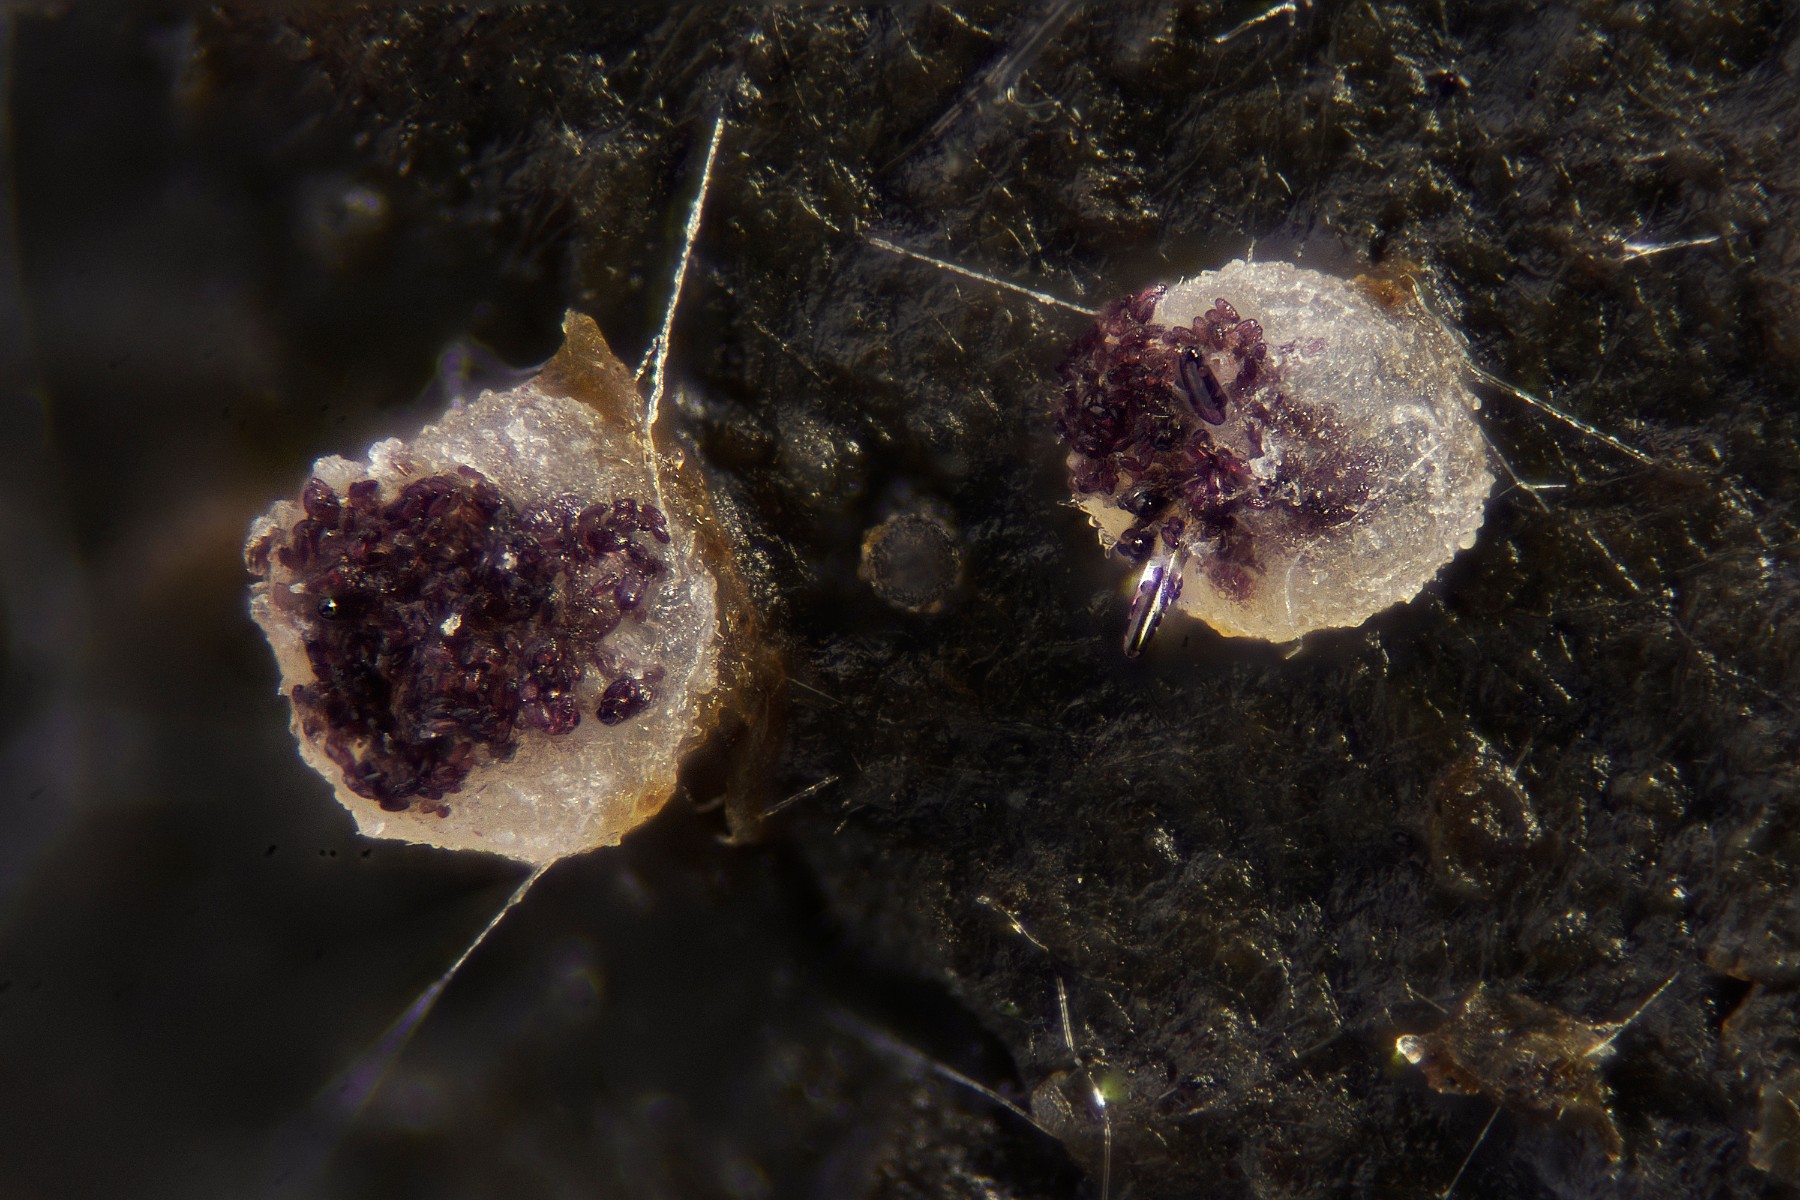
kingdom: Fungi
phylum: Ascomycota
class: Pezizomycetes
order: Pezizales
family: Ascobolaceae
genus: Ascobolus
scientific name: Ascobolus albidus
